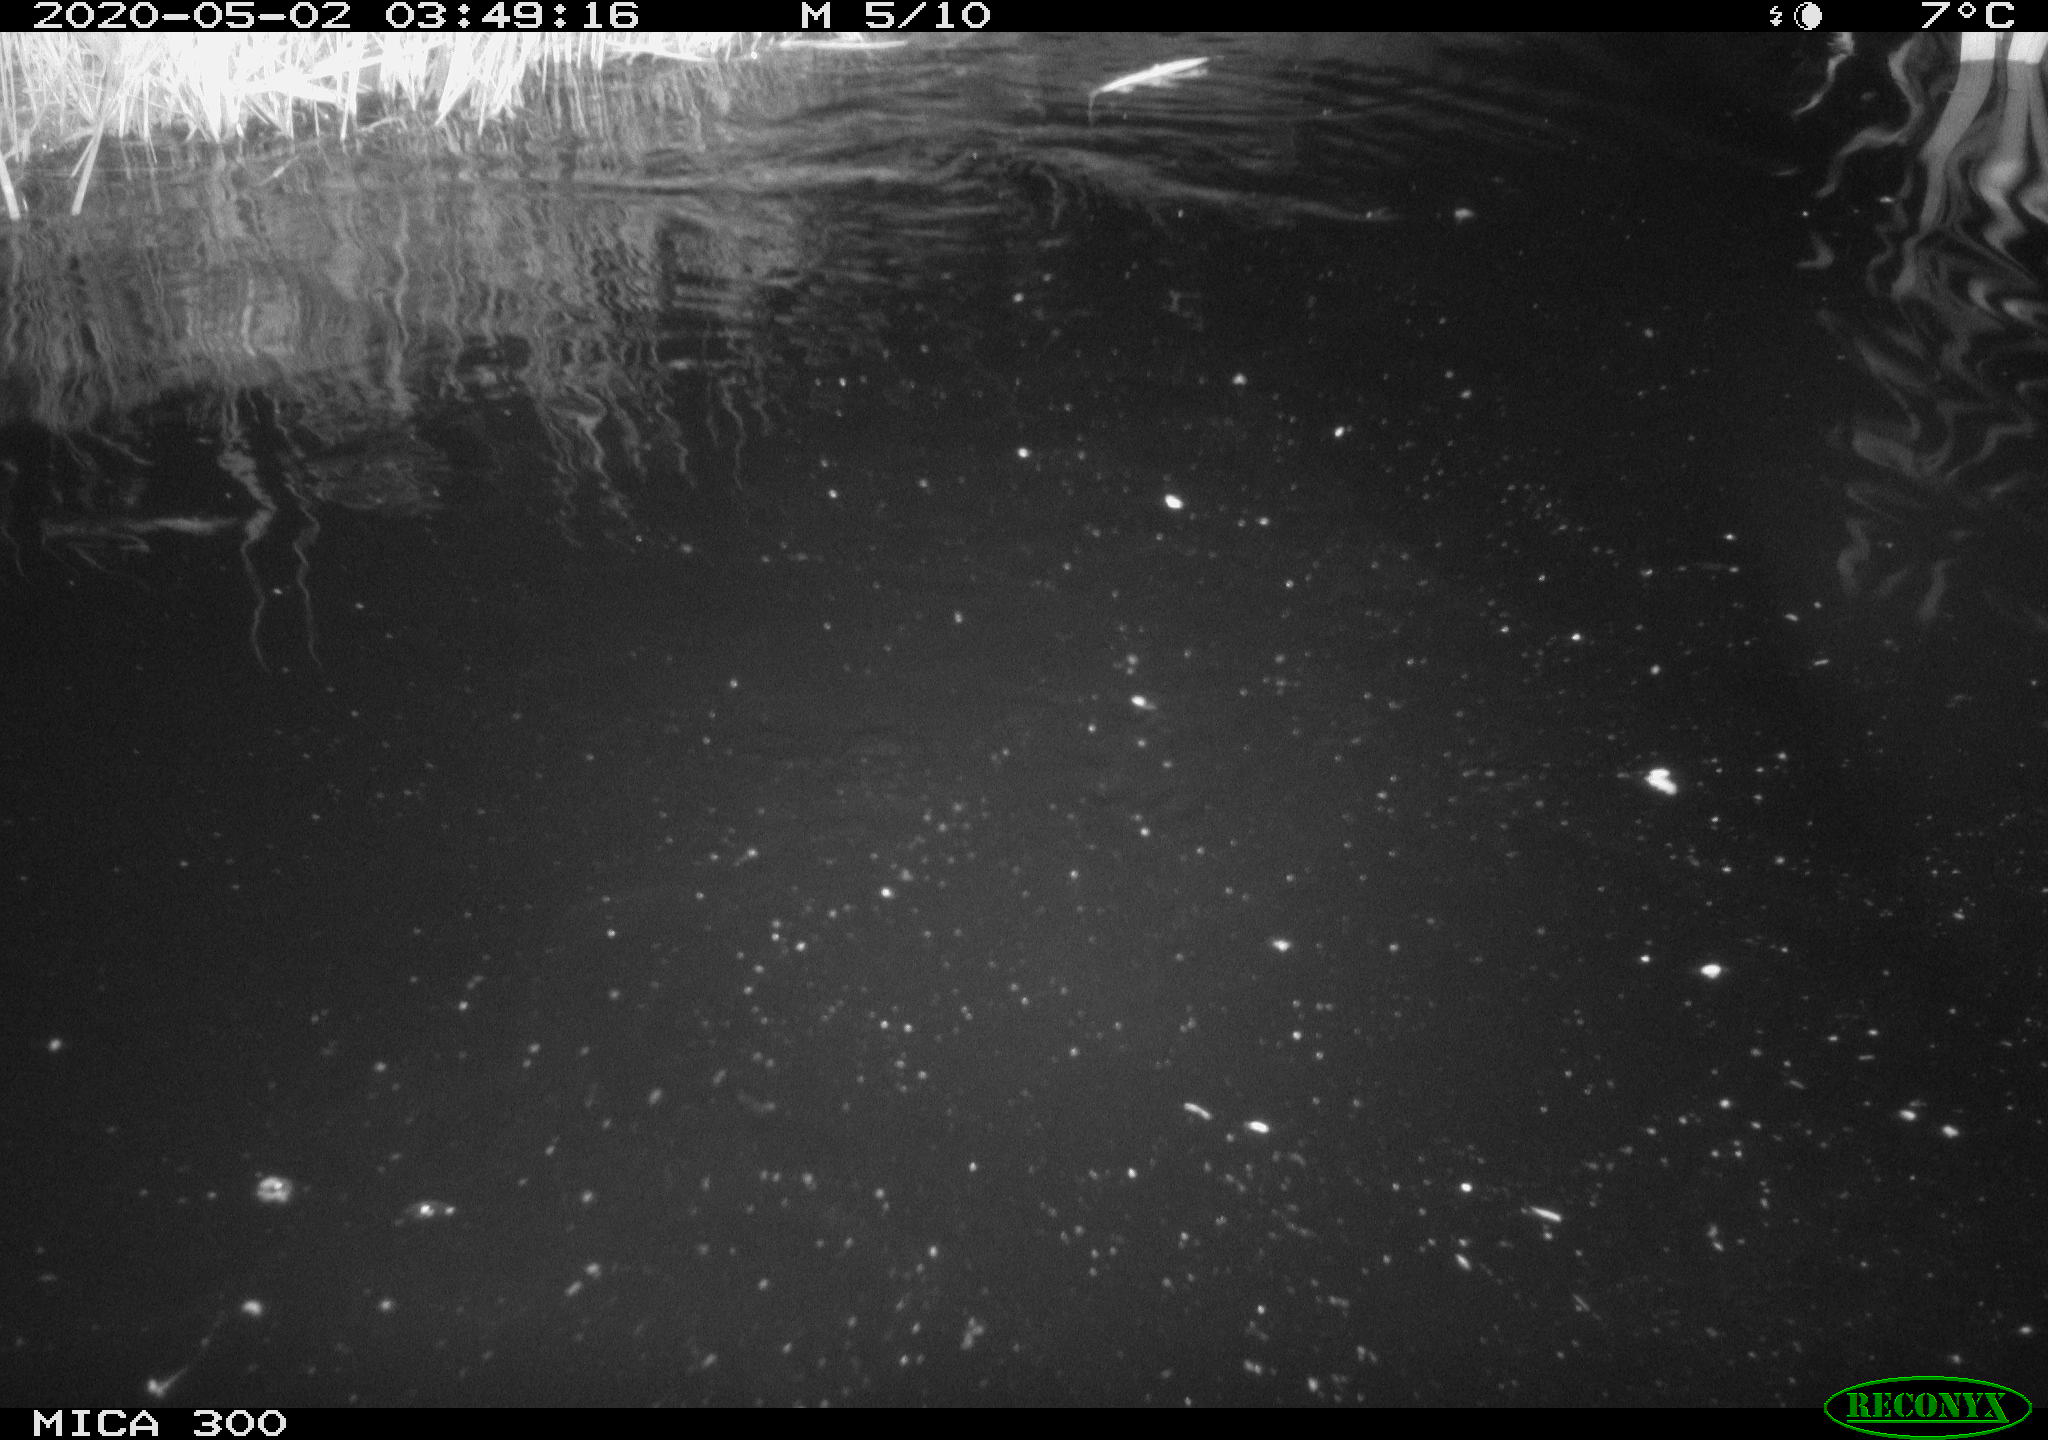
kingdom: Animalia
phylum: Chordata
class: Mammalia
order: Rodentia
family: Castoridae
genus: Castor
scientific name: Castor fiber
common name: Eurasian beaver
